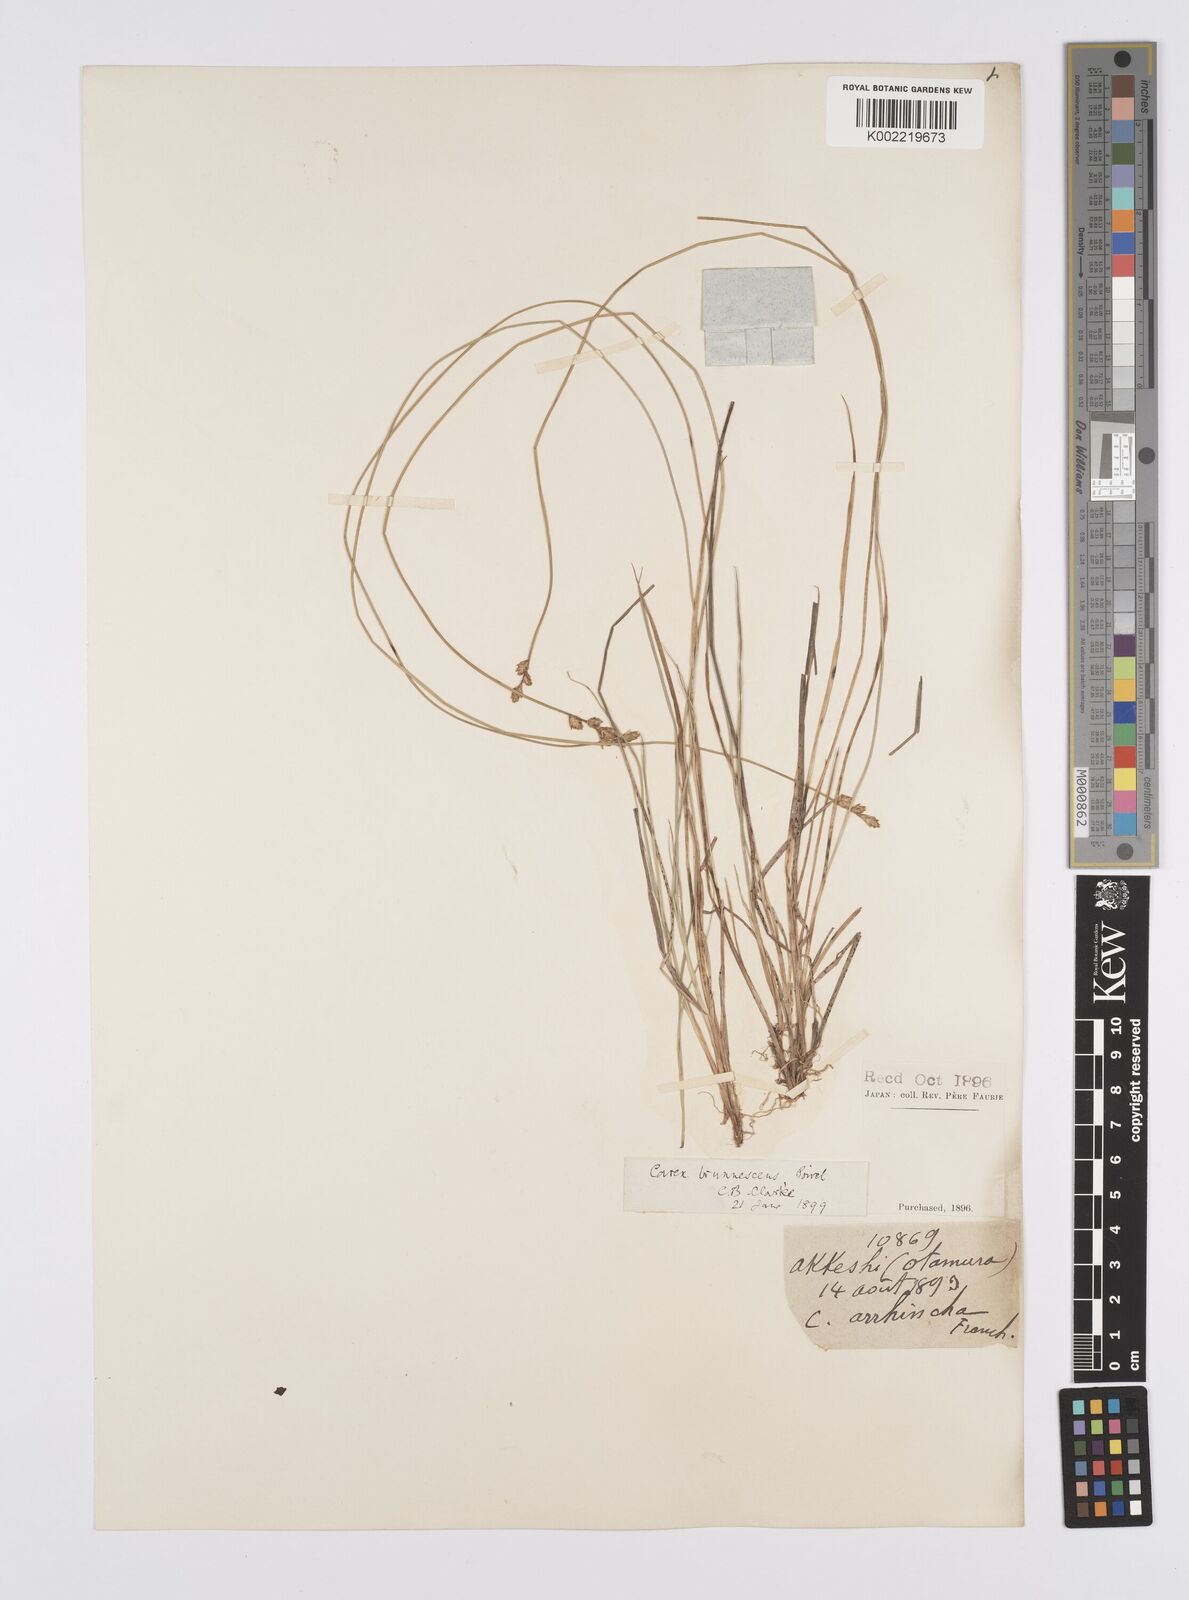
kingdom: Plantae
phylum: Tracheophyta
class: Liliopsida
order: Poales
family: Cyperaceae
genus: Carex
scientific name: Carex brunnescens
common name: Brown sedge
